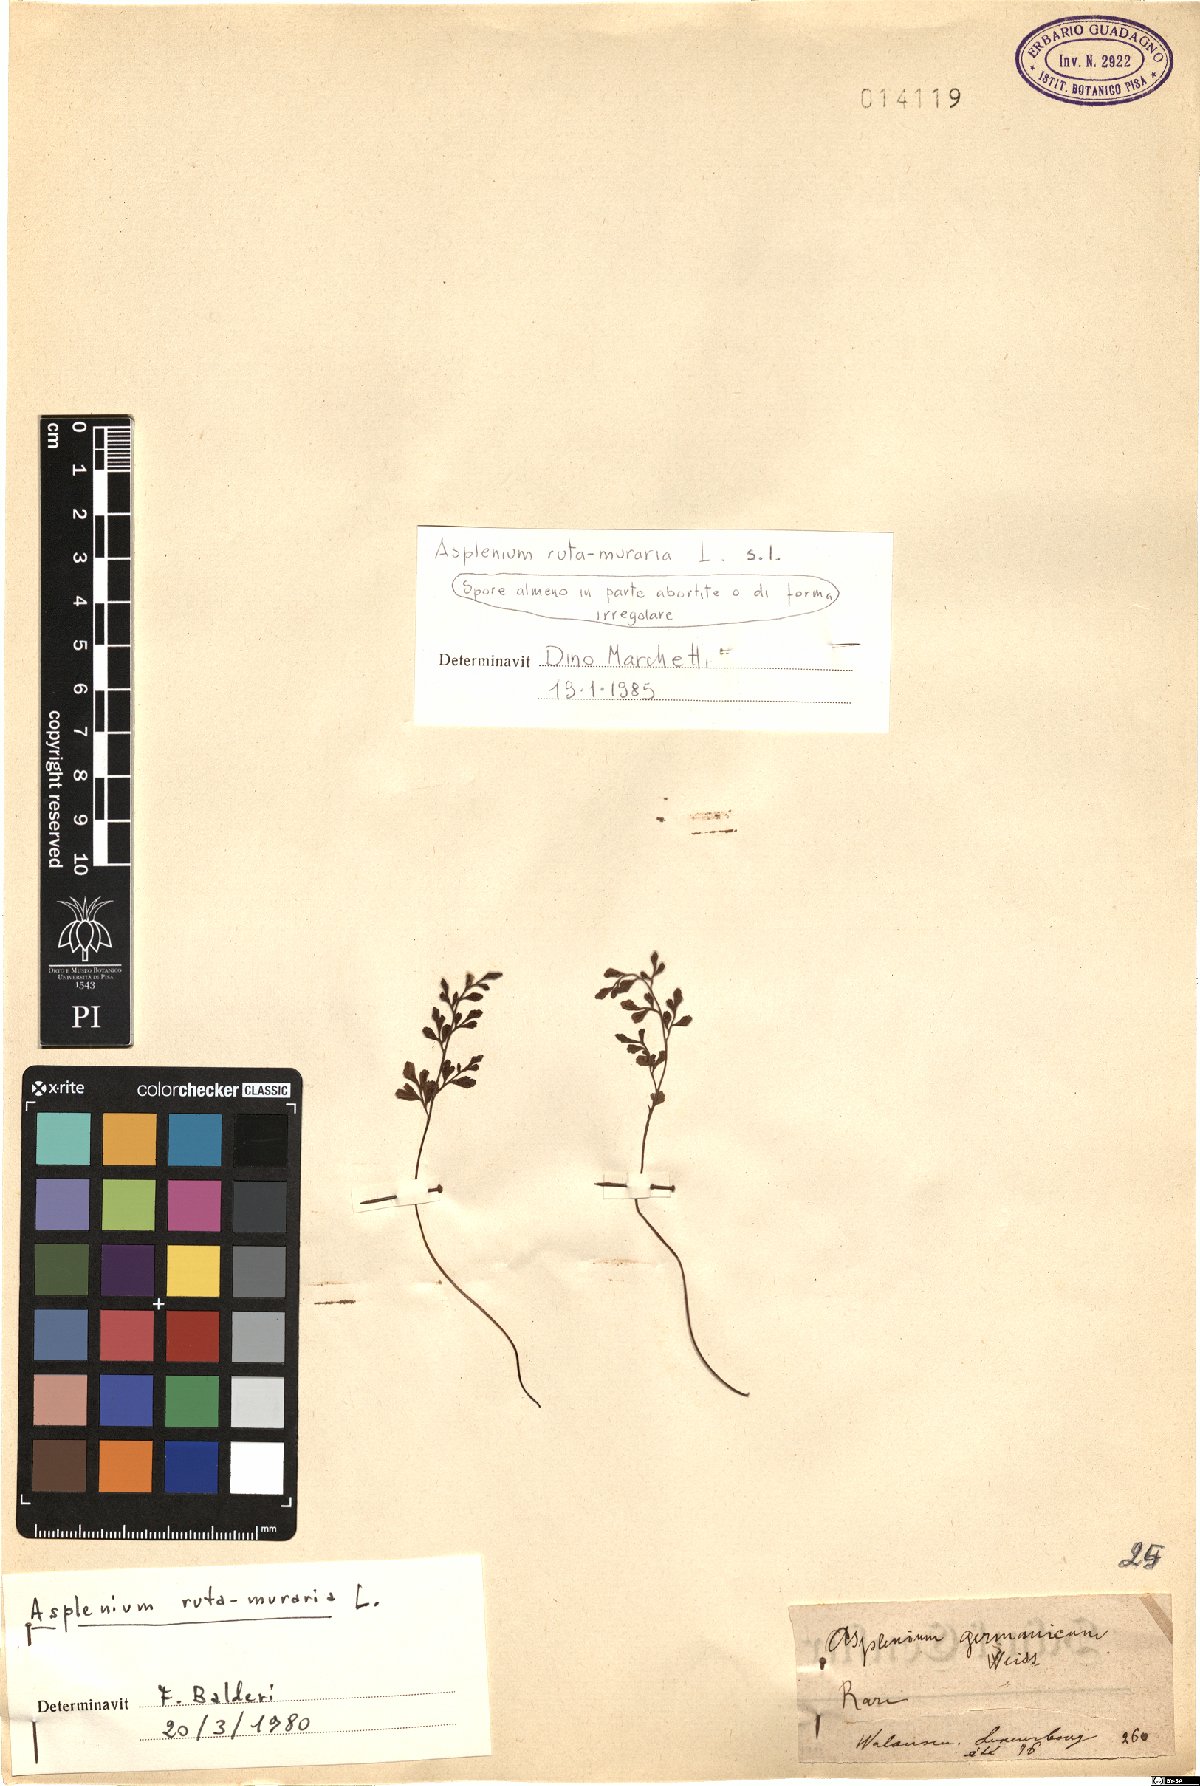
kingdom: Plantae
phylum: Tracheophyta
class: Polypodiopsida
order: Polypodiales
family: Aspleniaceae
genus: Asplenium
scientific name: Asplenium ruta-muraria
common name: Wall-rue
